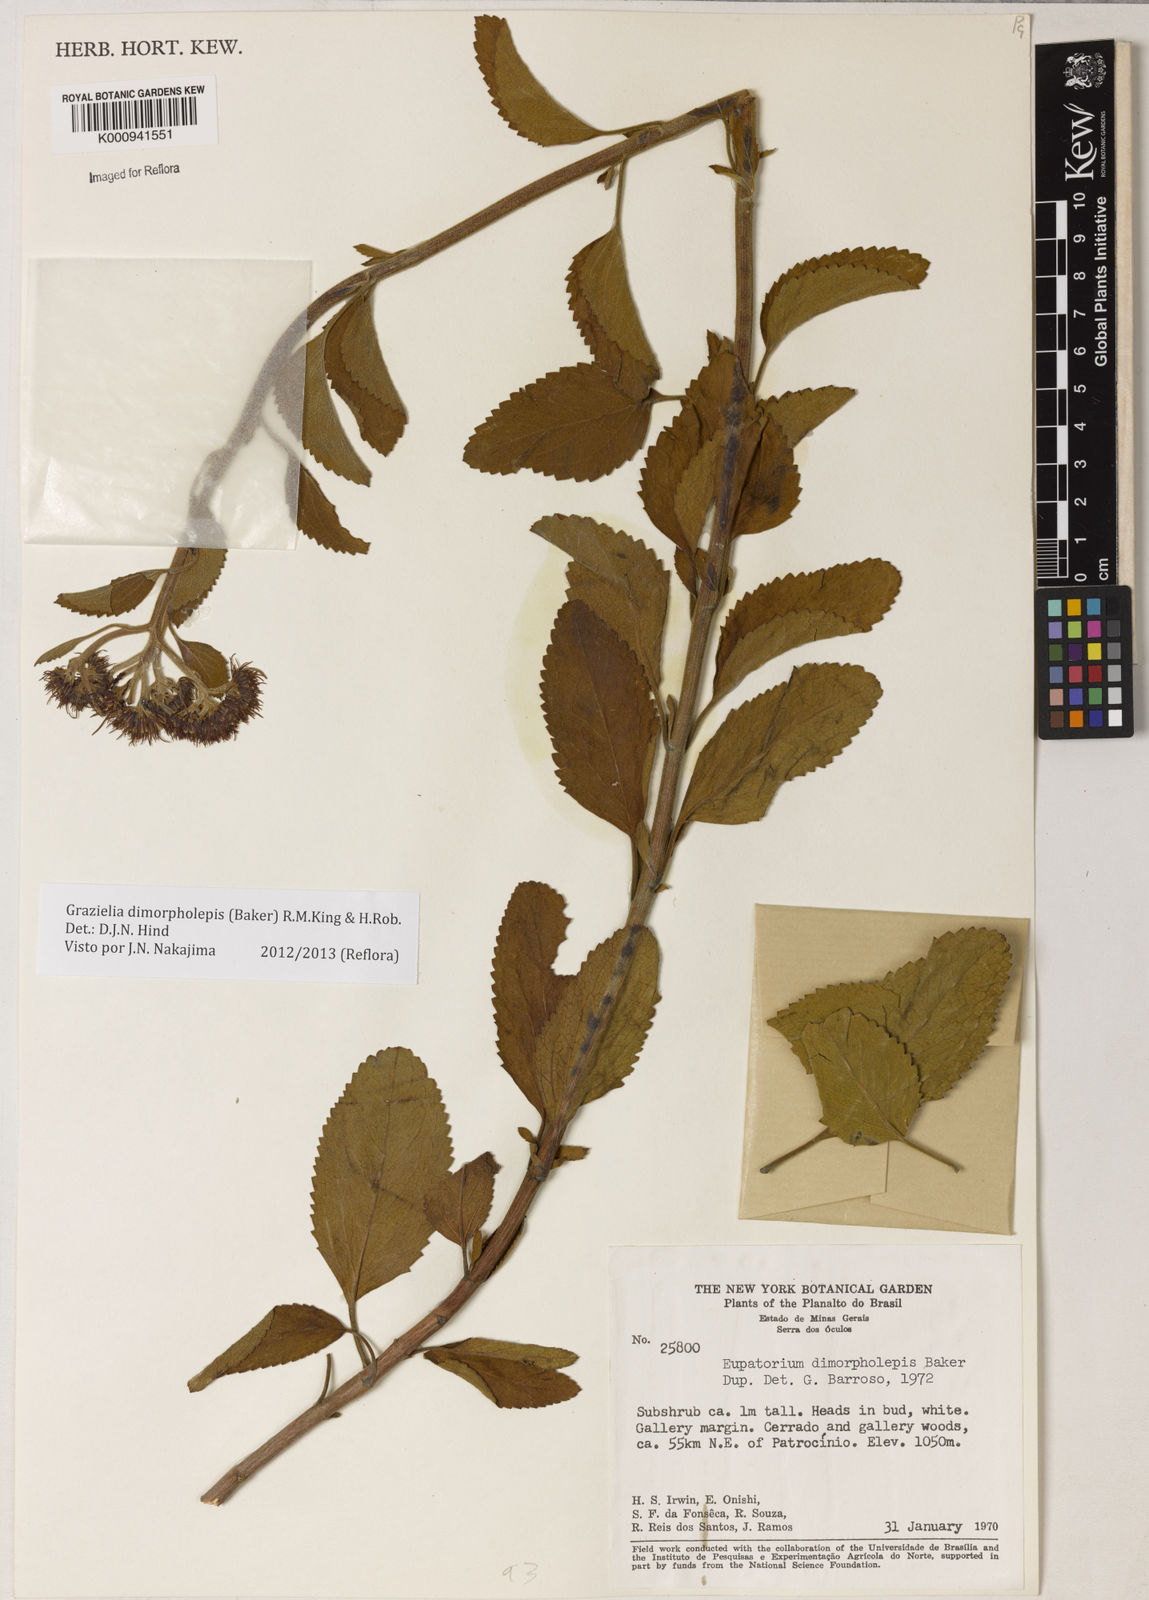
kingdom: Plantae
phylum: Tracheophyta
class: Magnoliopsida
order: Asterales
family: Asteraceae
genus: Grazielia
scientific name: Grazielia dimorpholepis
